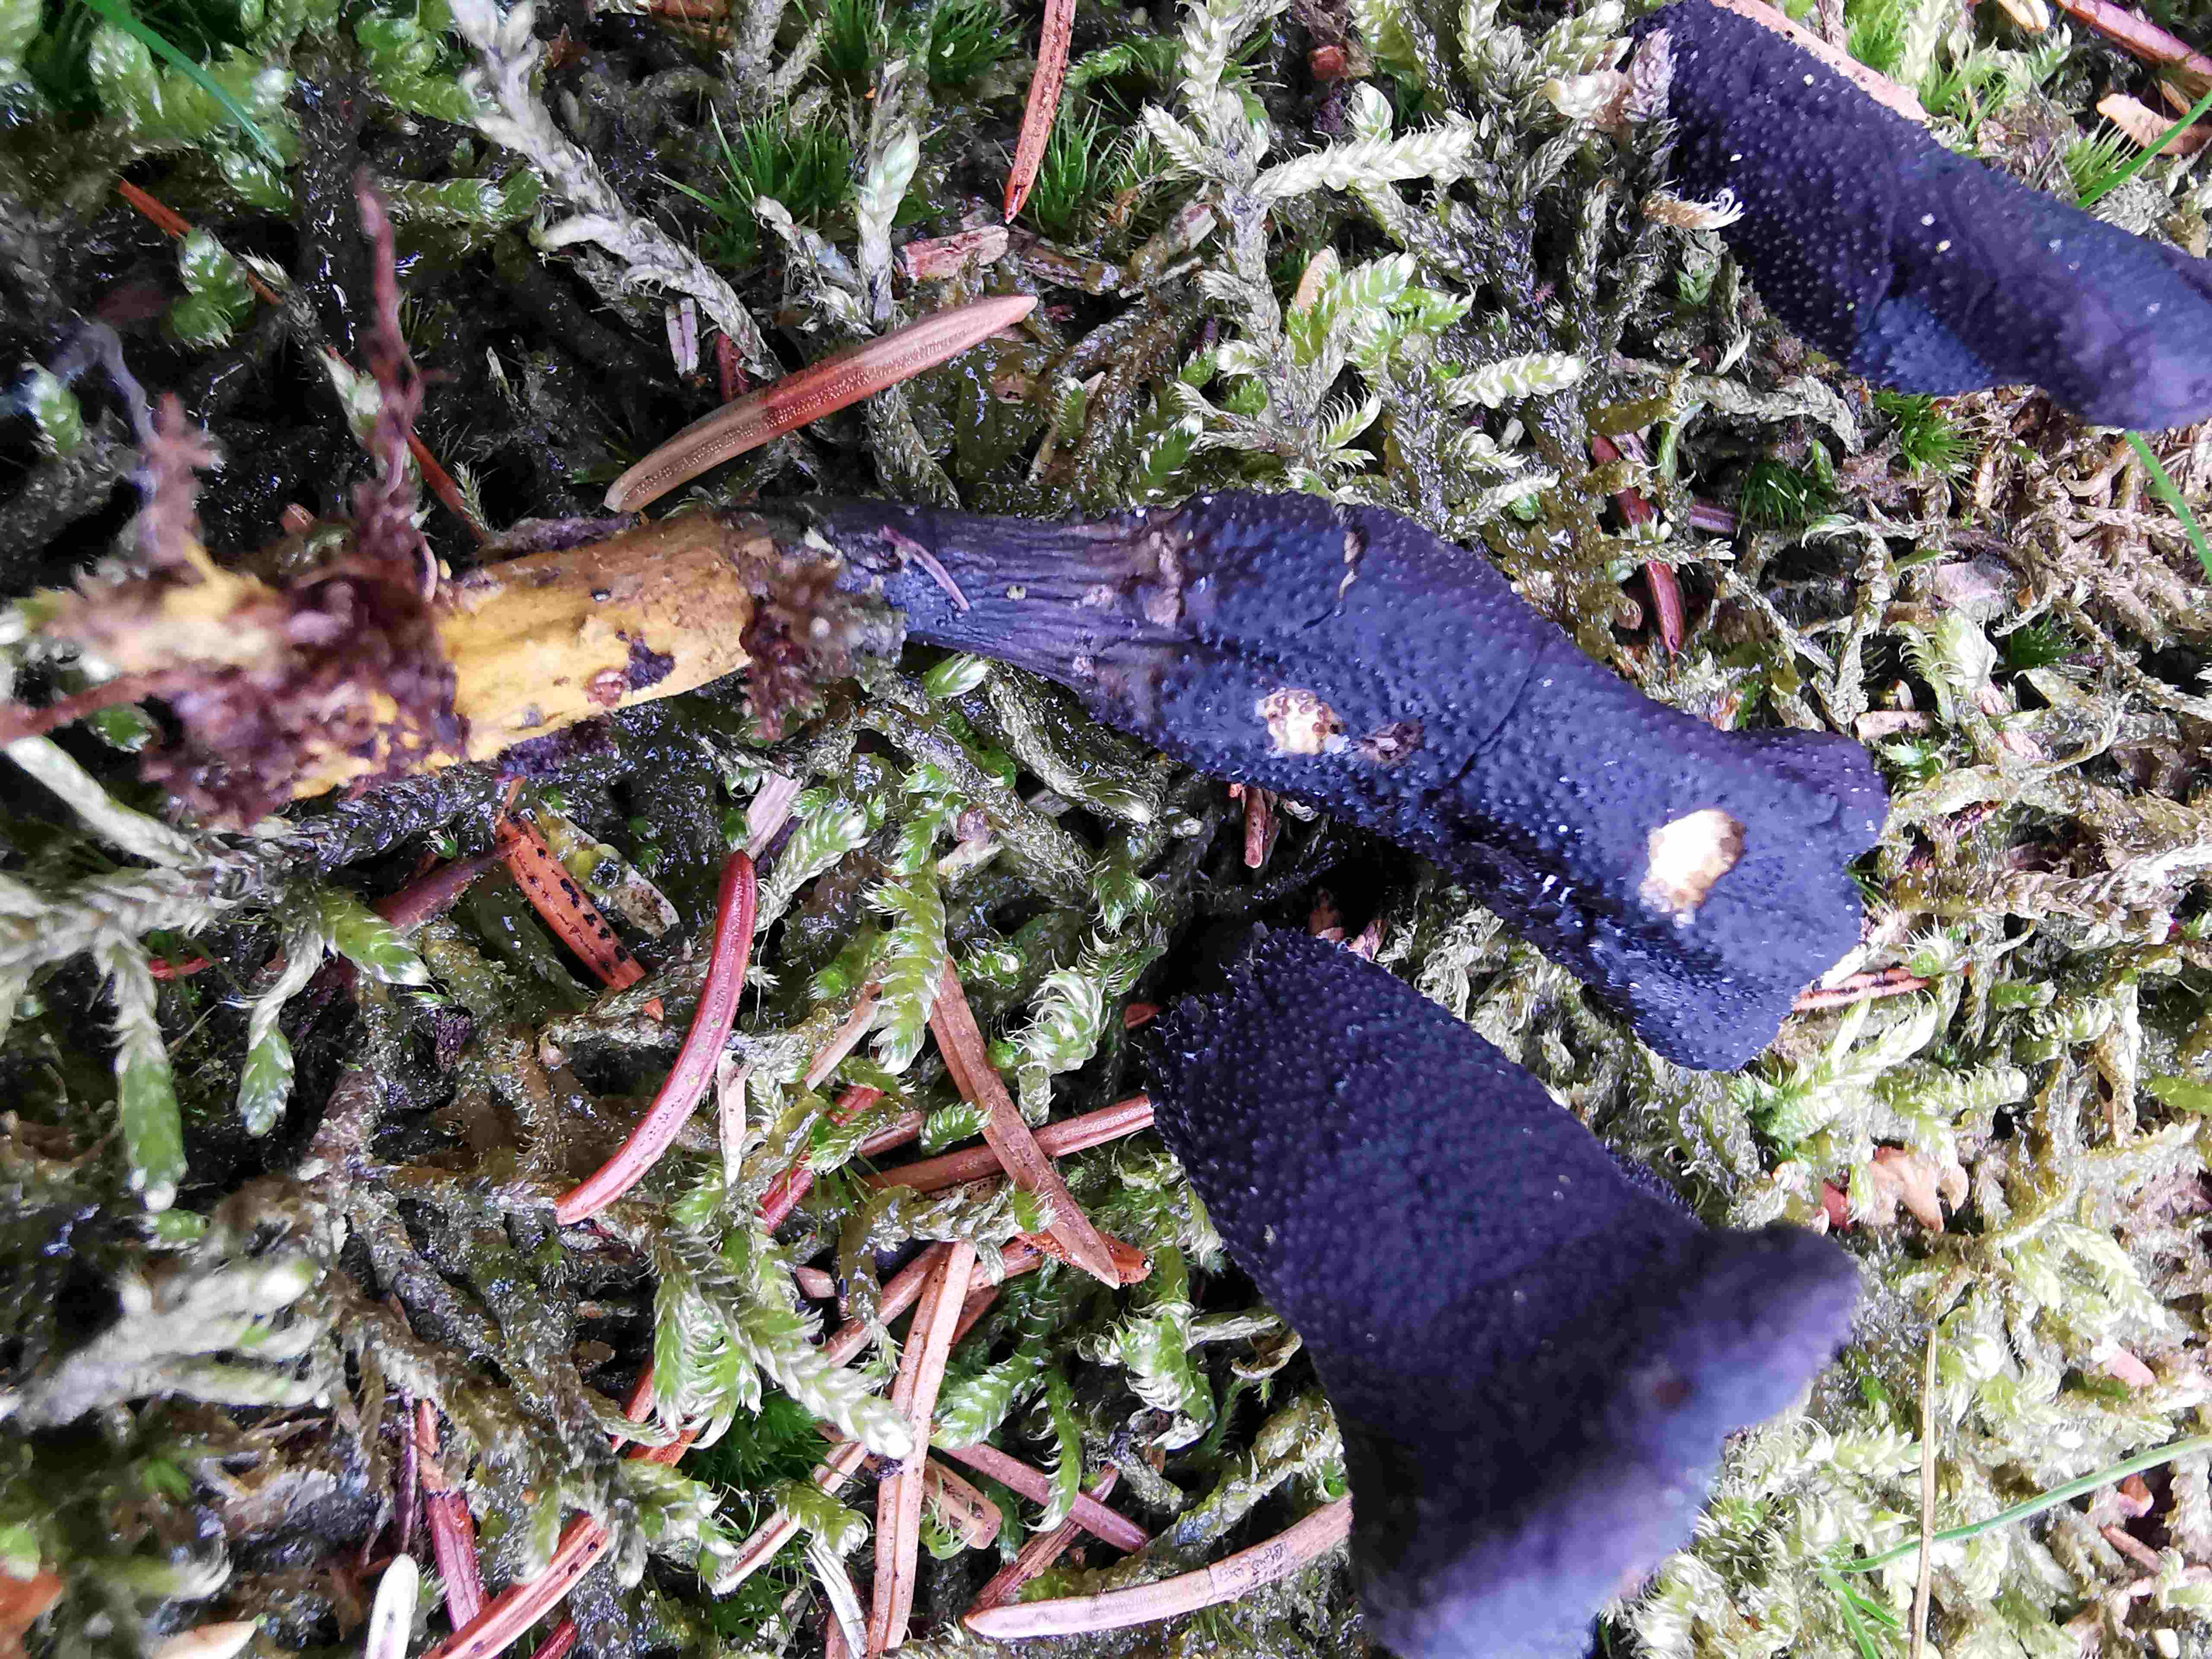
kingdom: Fungi
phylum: Ascomycota
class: Sordariomycetes
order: Hypocreales
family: Ophiocordycipitaceae
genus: Tolypocladium
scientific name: Tolypocladium ophioglossoides
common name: slank snyltekølle
